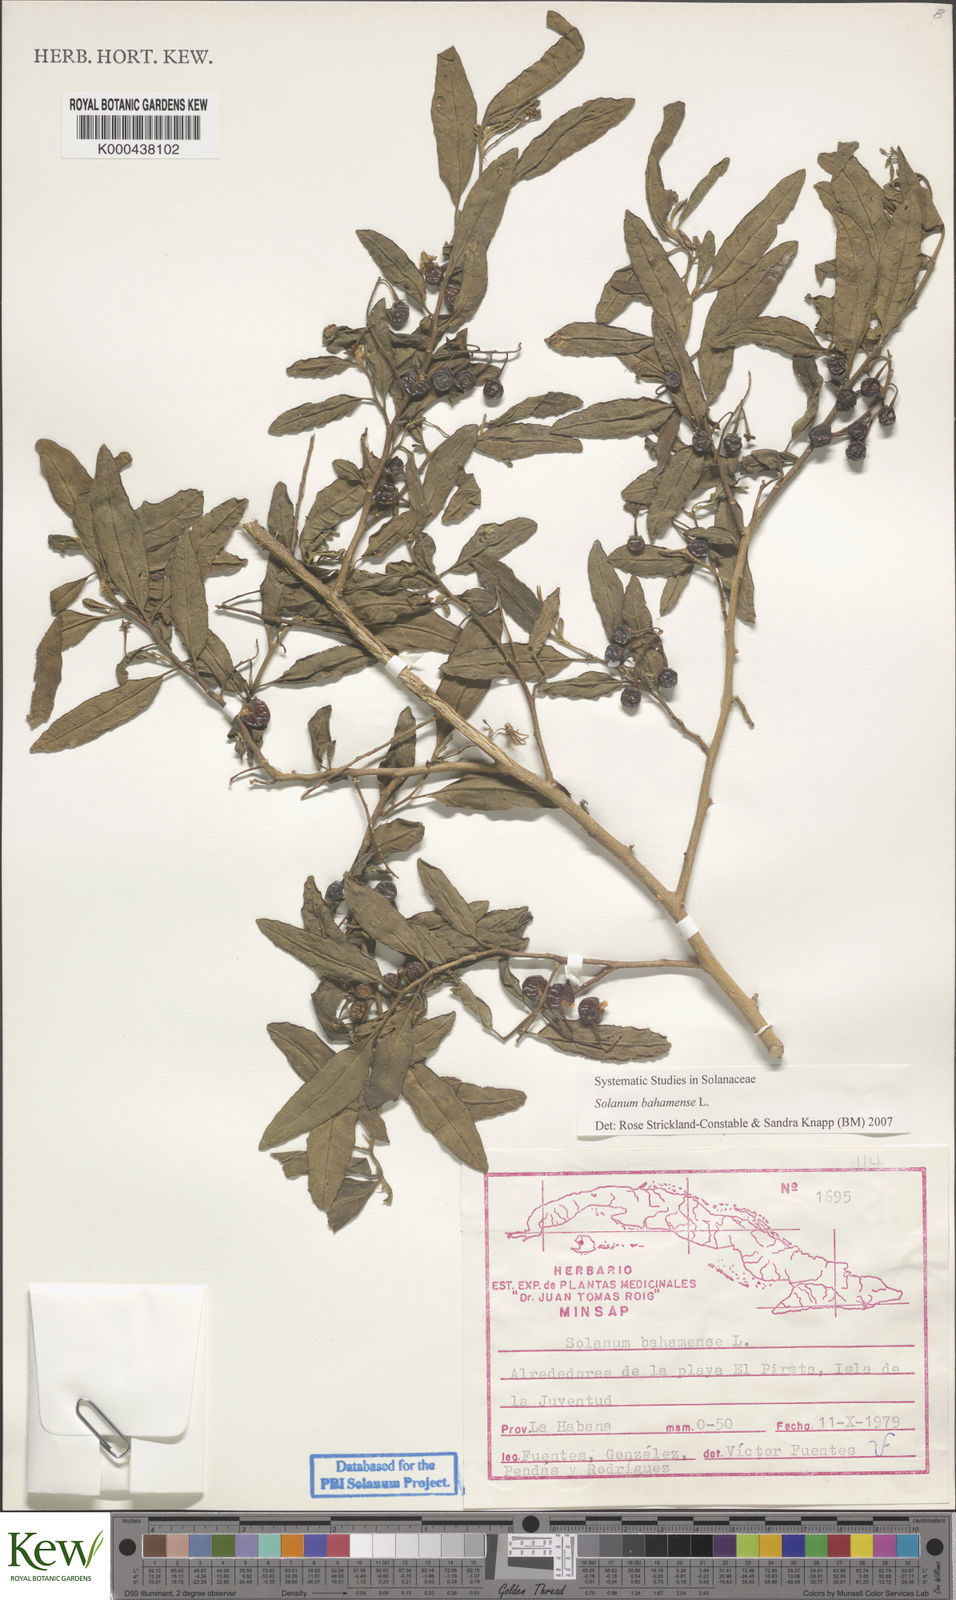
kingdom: Plantae
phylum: Tracheophyta
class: Magnoliopsida
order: Solanales
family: Solanaceae
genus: Solanum
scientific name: Solanum bahamense
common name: Canker-berry
